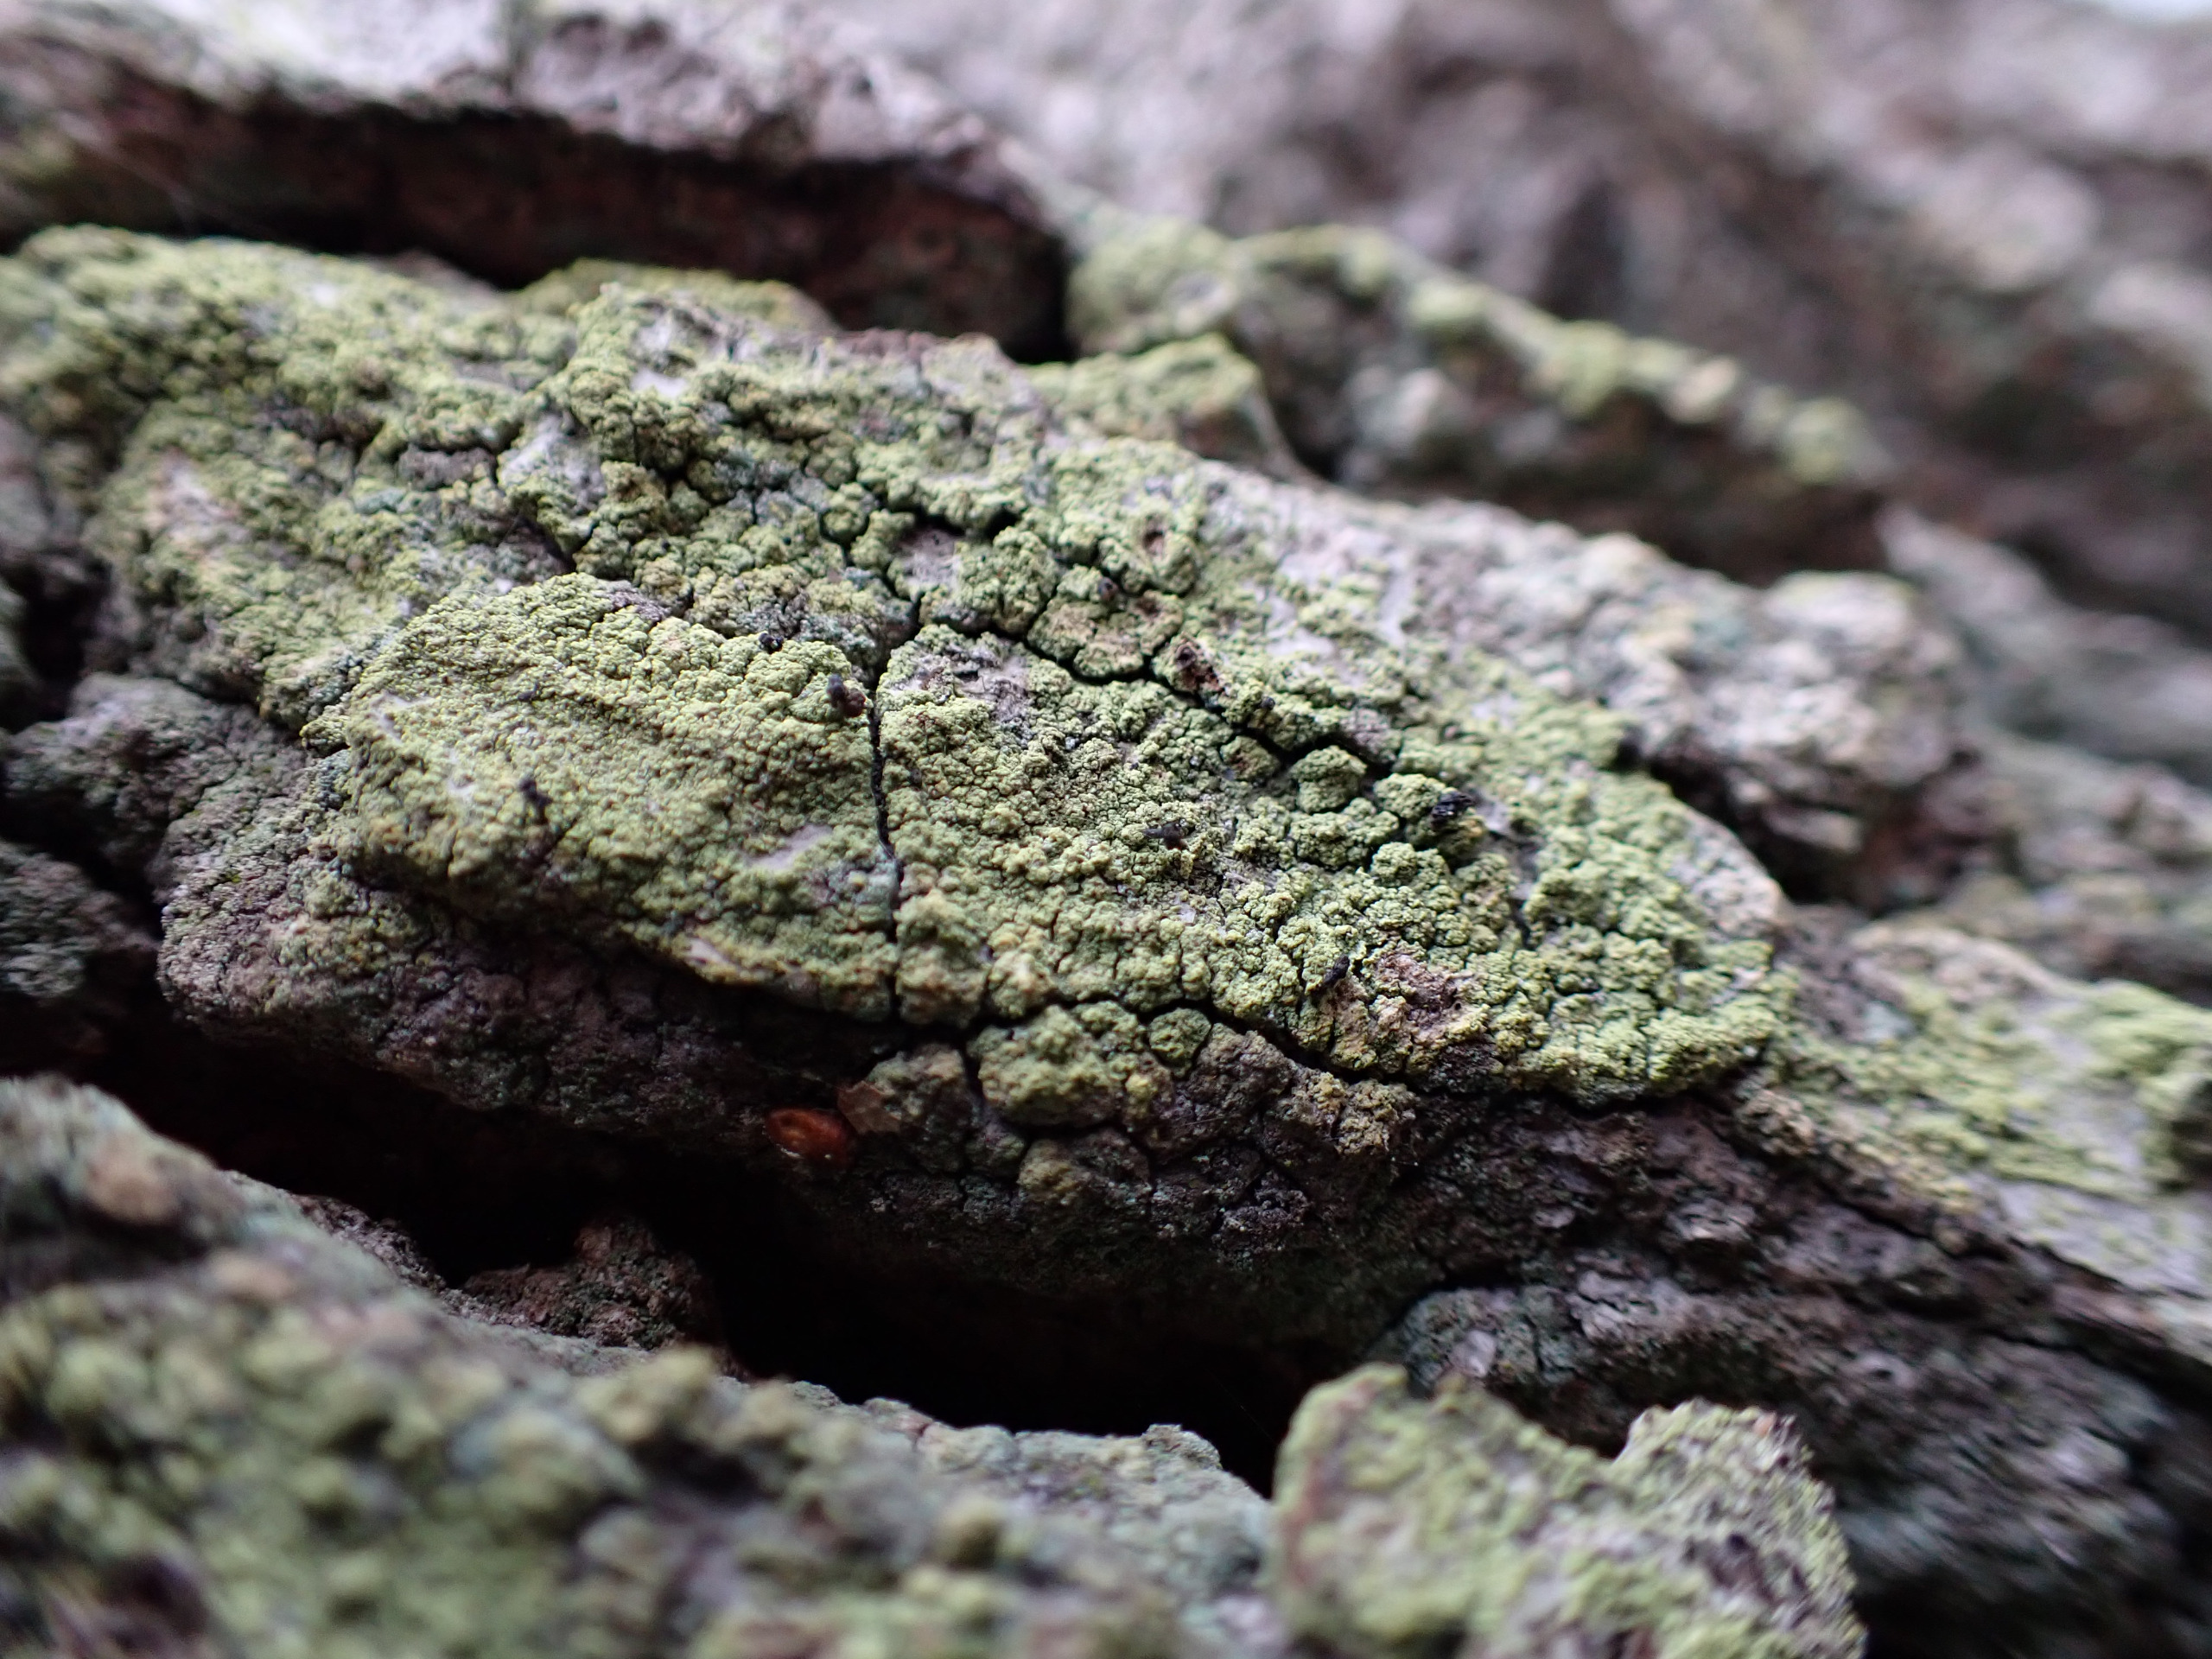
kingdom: Fungi
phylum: Ascomycota
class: Lecanoromycetes
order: Caliciales
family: Caliciaceae
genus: Calicium
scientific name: Calicium viride
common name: Gulgrøn nålelav
